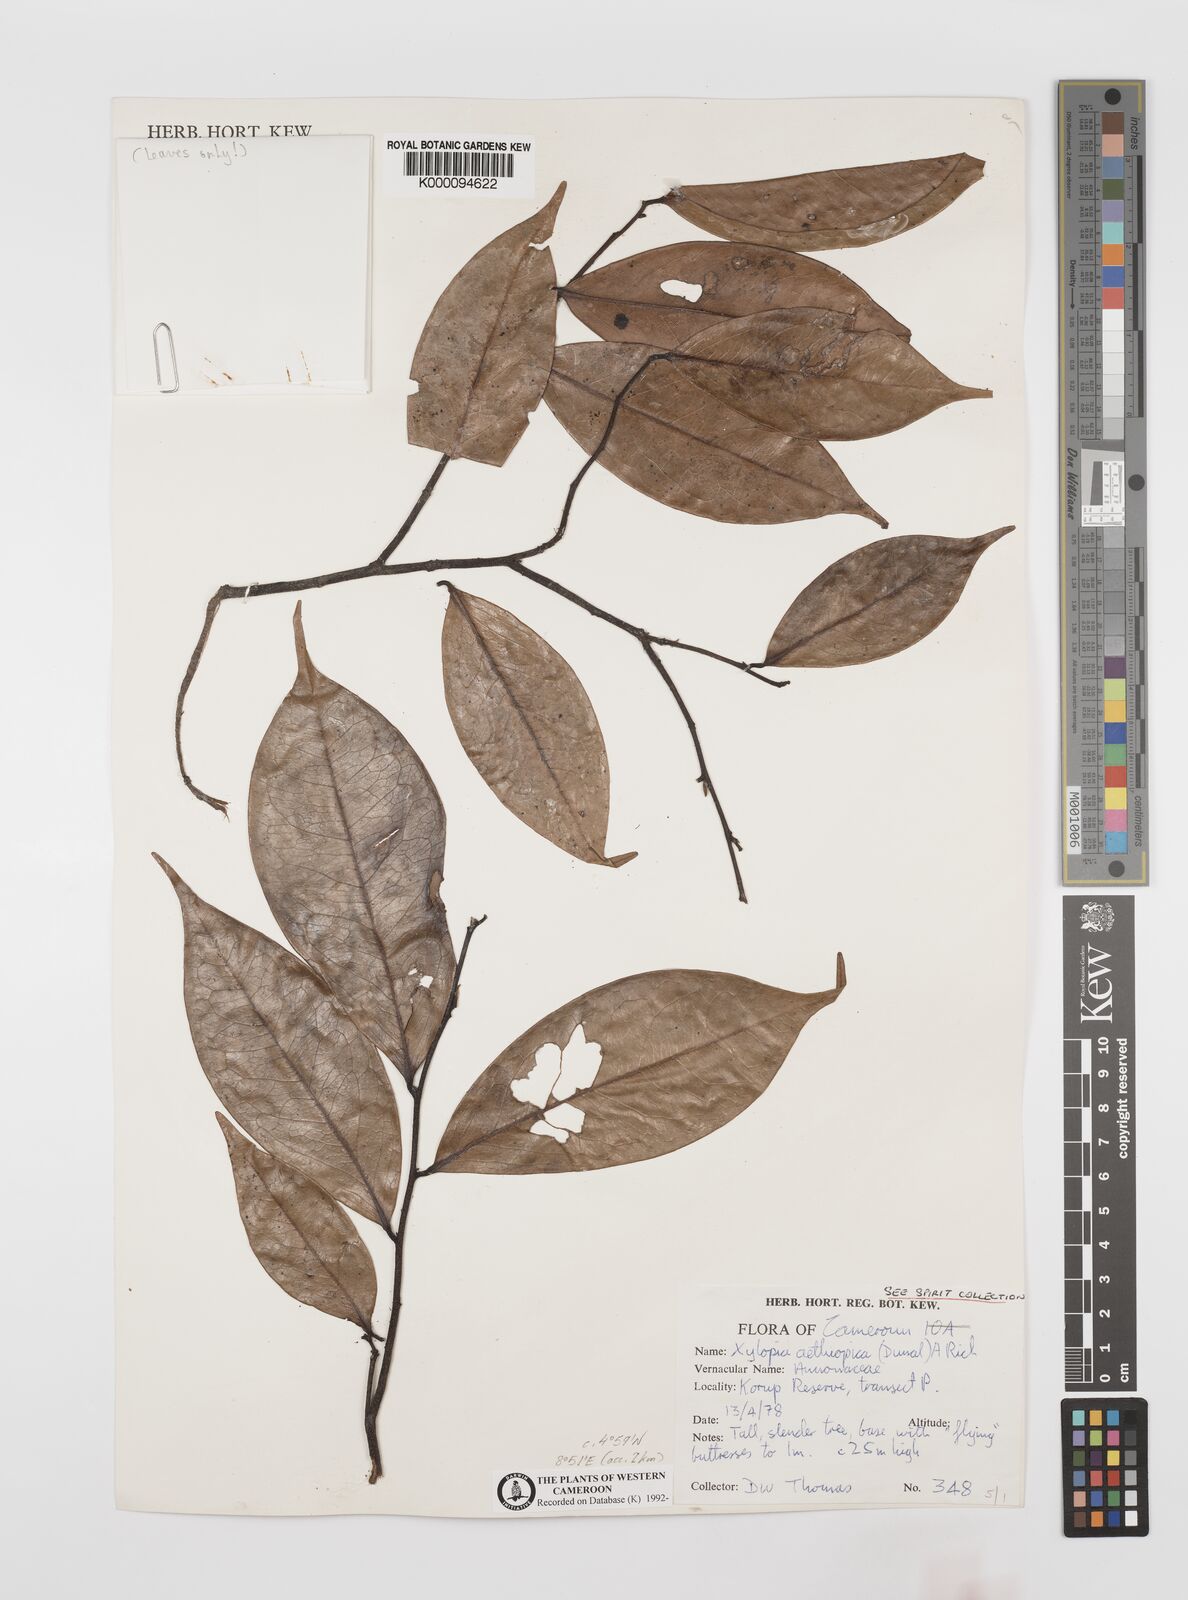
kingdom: Plantae
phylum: Tracheophyta
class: Magnoliopsida
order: Magnoliales
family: Annonaceae
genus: Xylopia
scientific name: Xylopia aethiopica
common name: Ethiopian-pepper
